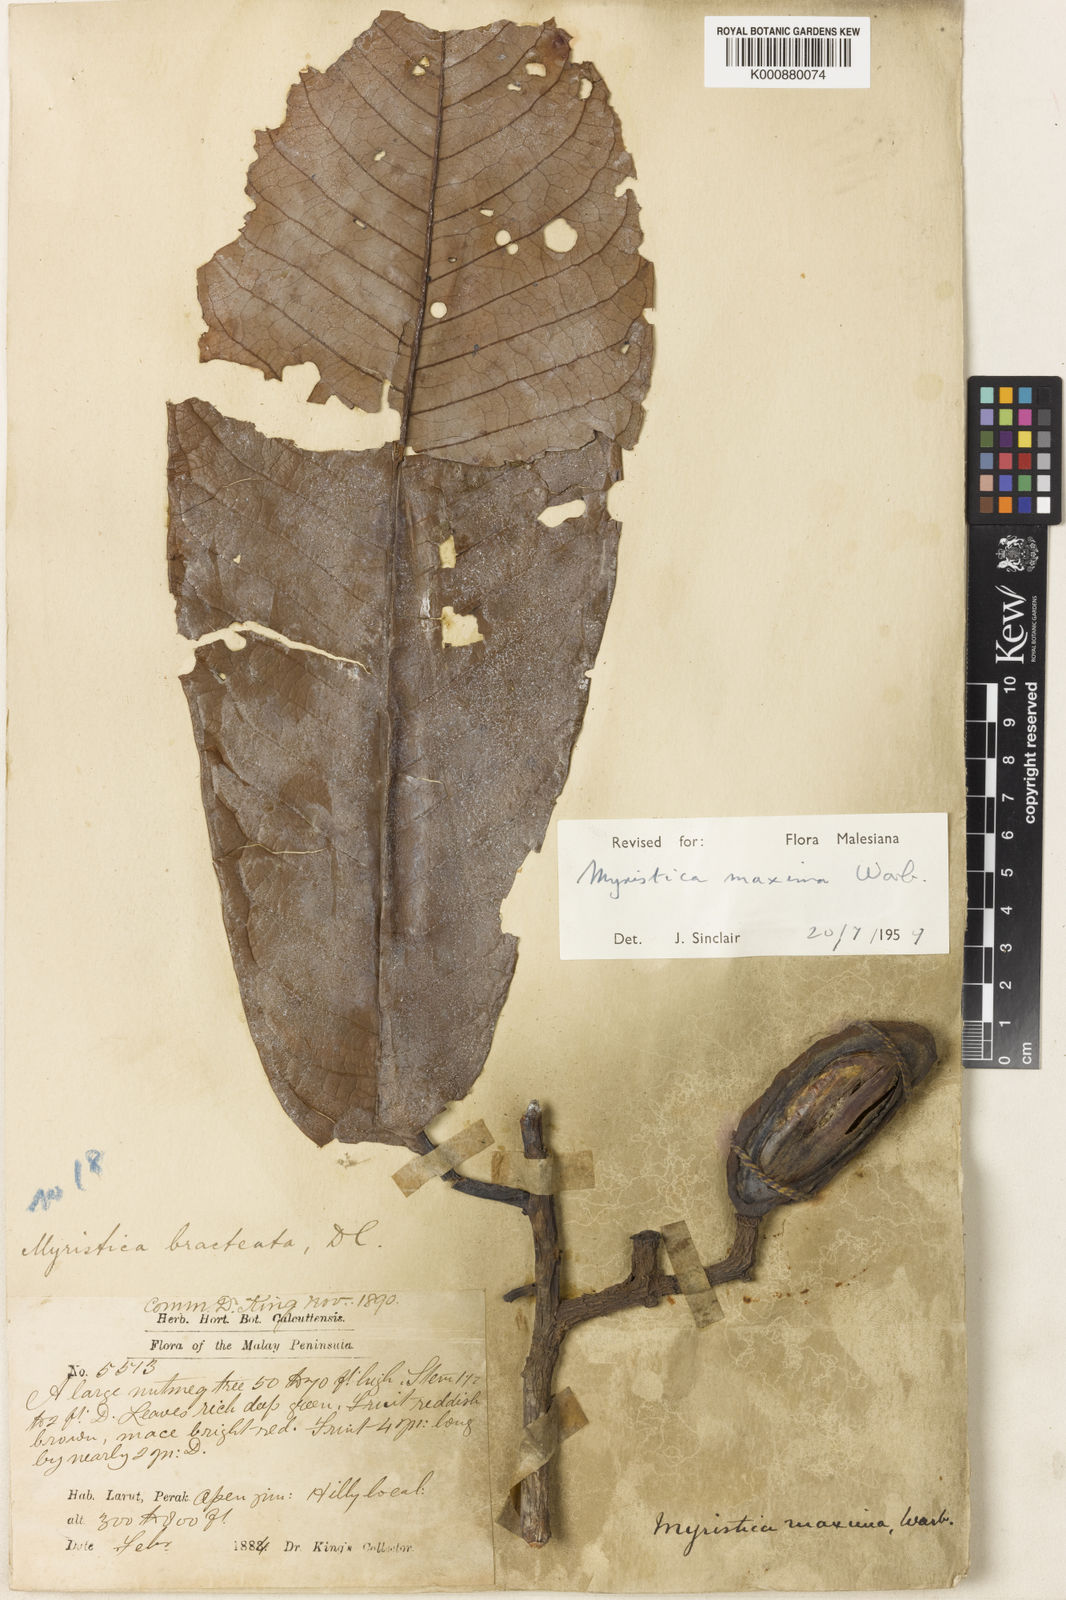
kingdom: Plantae
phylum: Tracheophyta
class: Magnoliopsida
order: Magnoliales
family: Myristicaceae
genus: Myristica
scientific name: Myristica maxima
